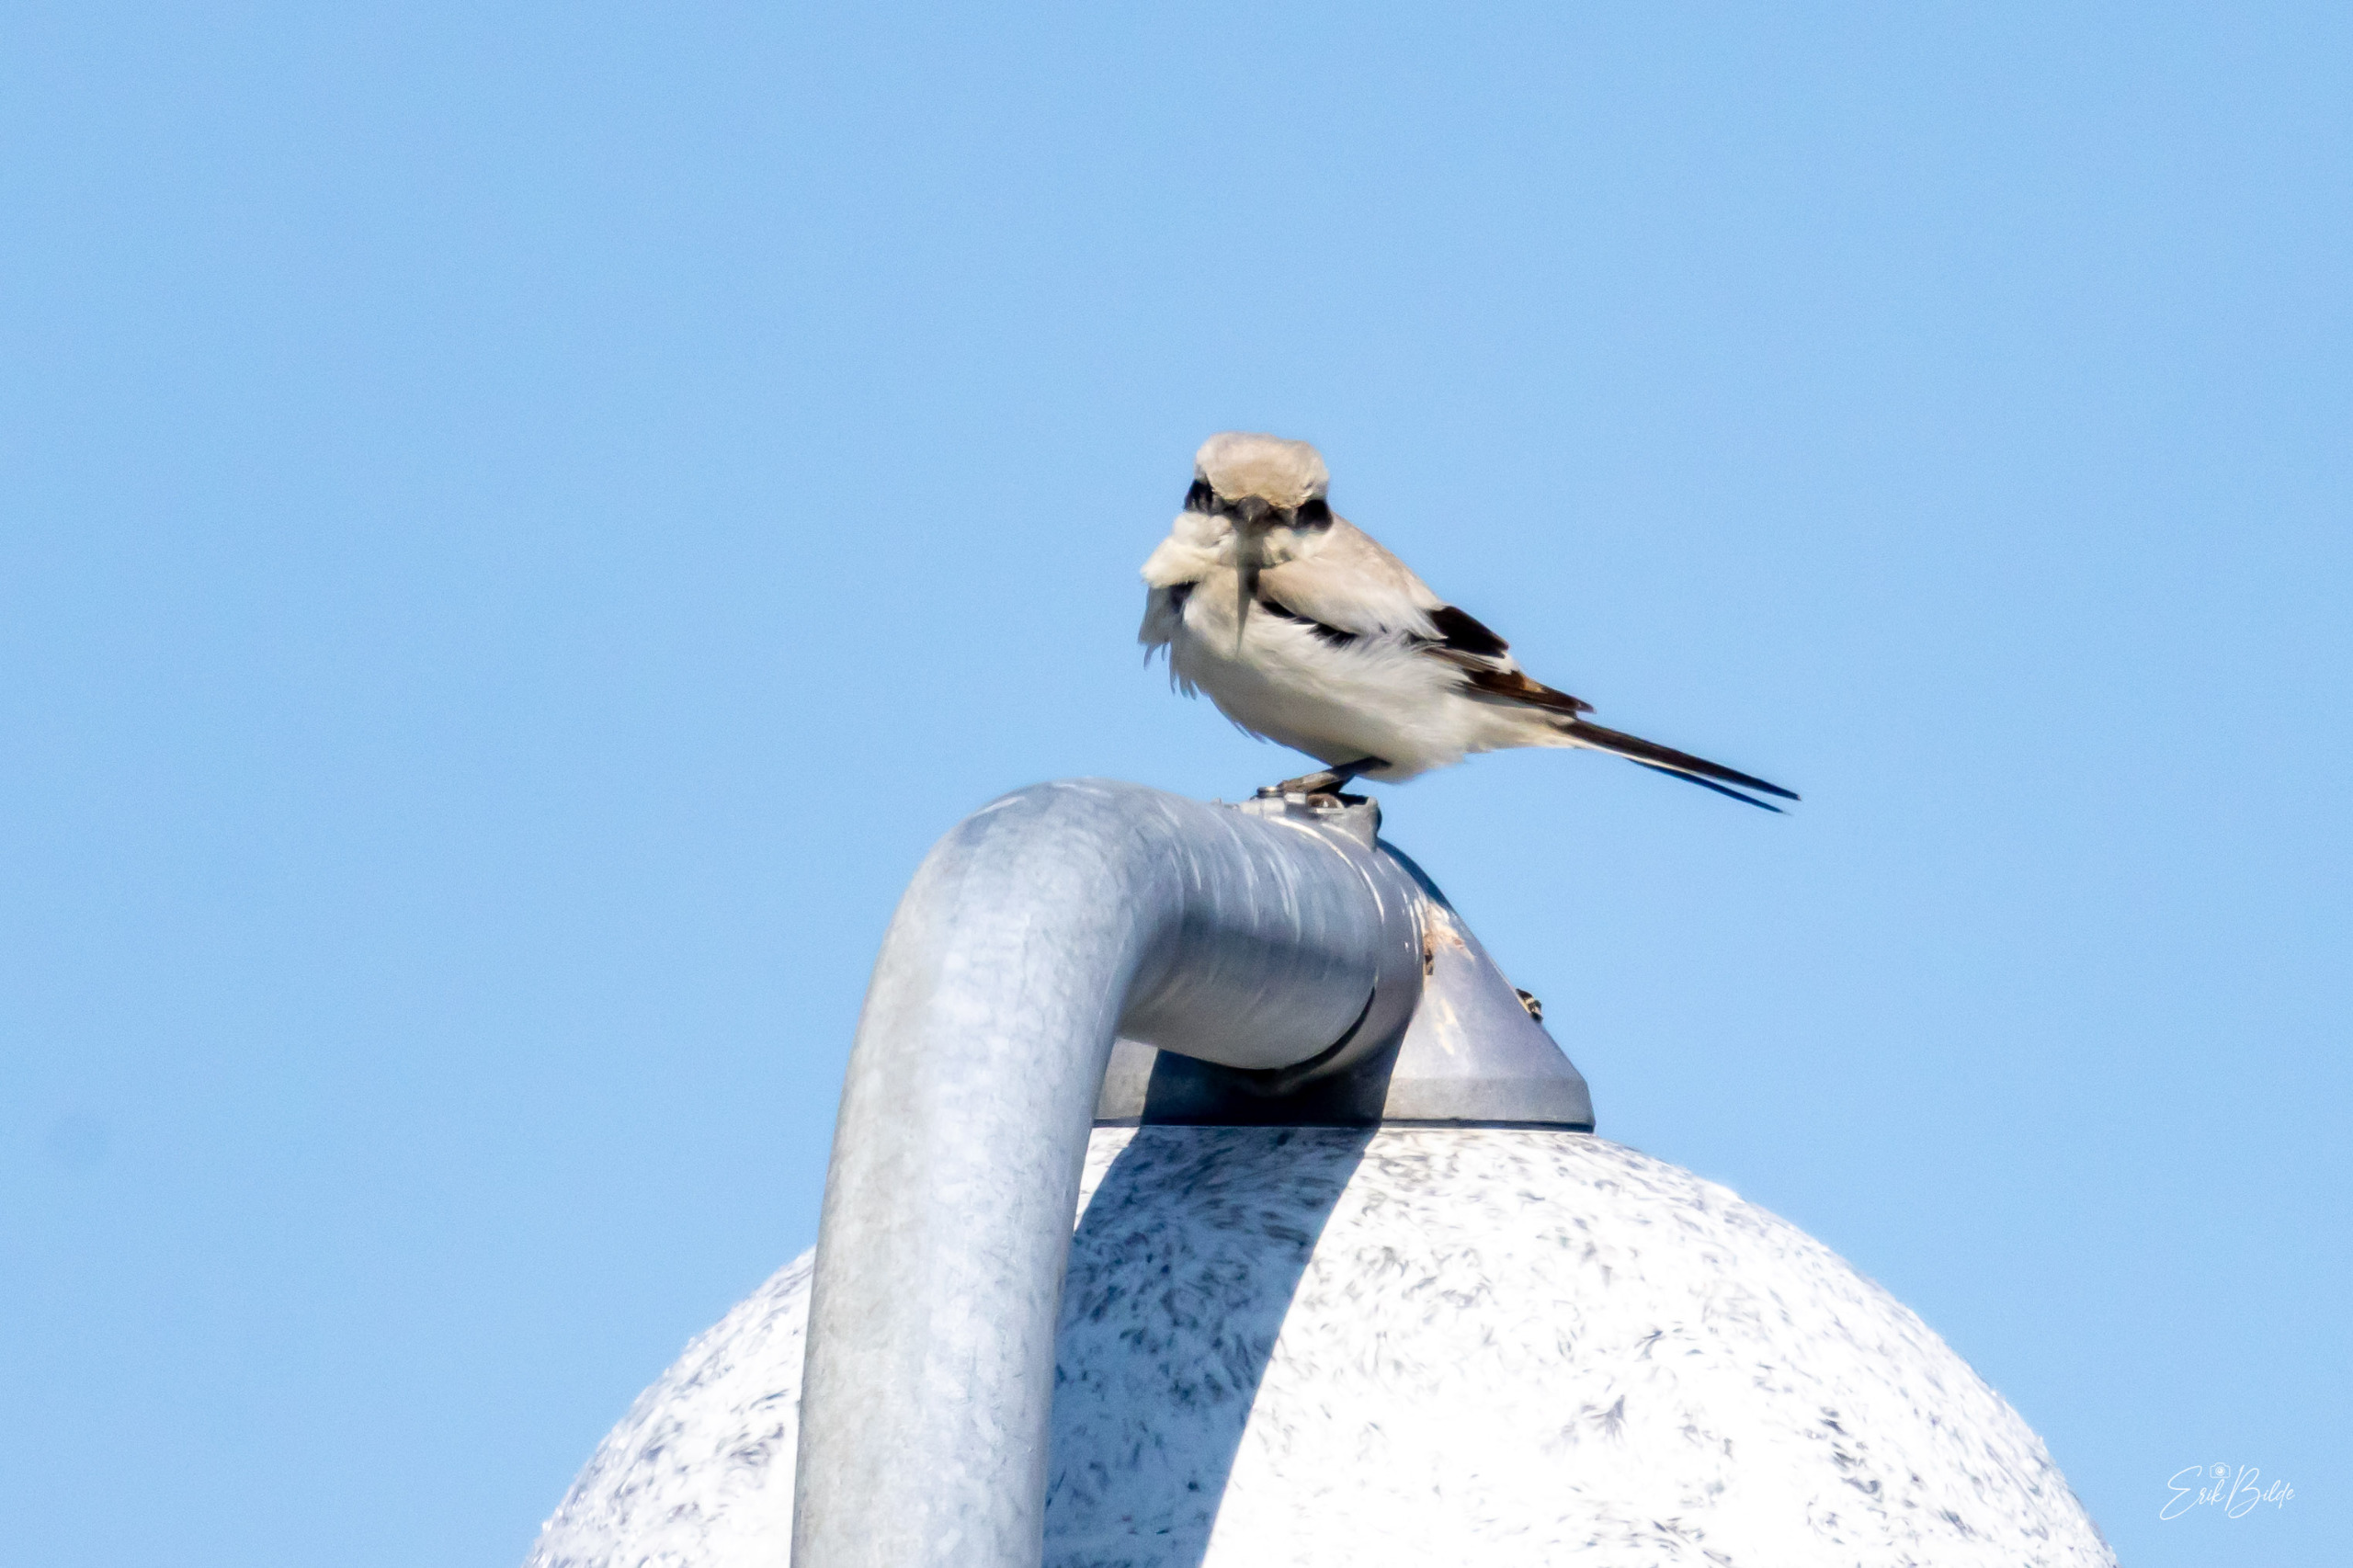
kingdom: Animalia
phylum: Chordata
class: Aves
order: Passeriformes
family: Laniidae
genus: Lanius
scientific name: Lanius excubitor
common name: Ørkentornskade
